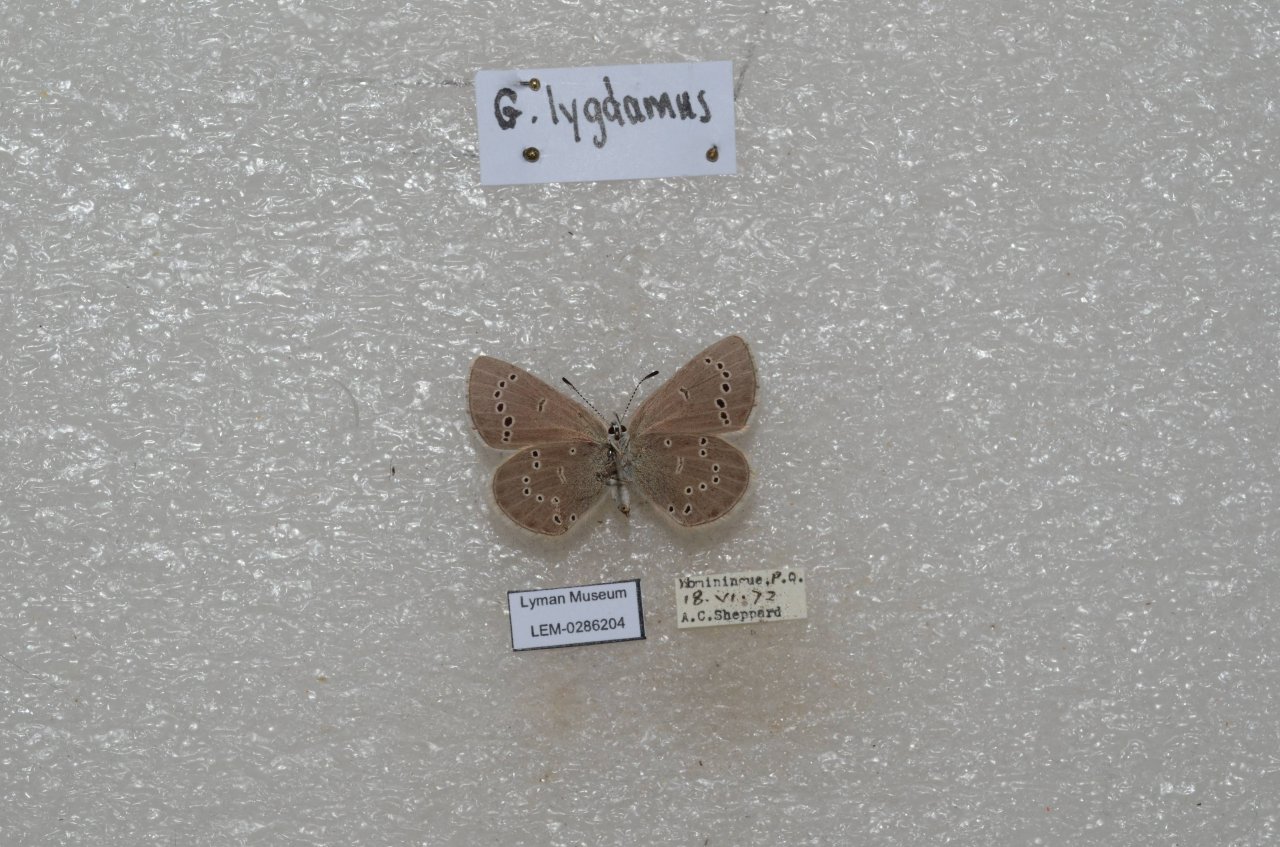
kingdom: Animalia
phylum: Arthropoda
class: Insecta
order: Lepidoptera
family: Lycaenidae
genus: Glaucopsyche
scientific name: Glaucopsyche lygdamus
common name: Silvery Blue
